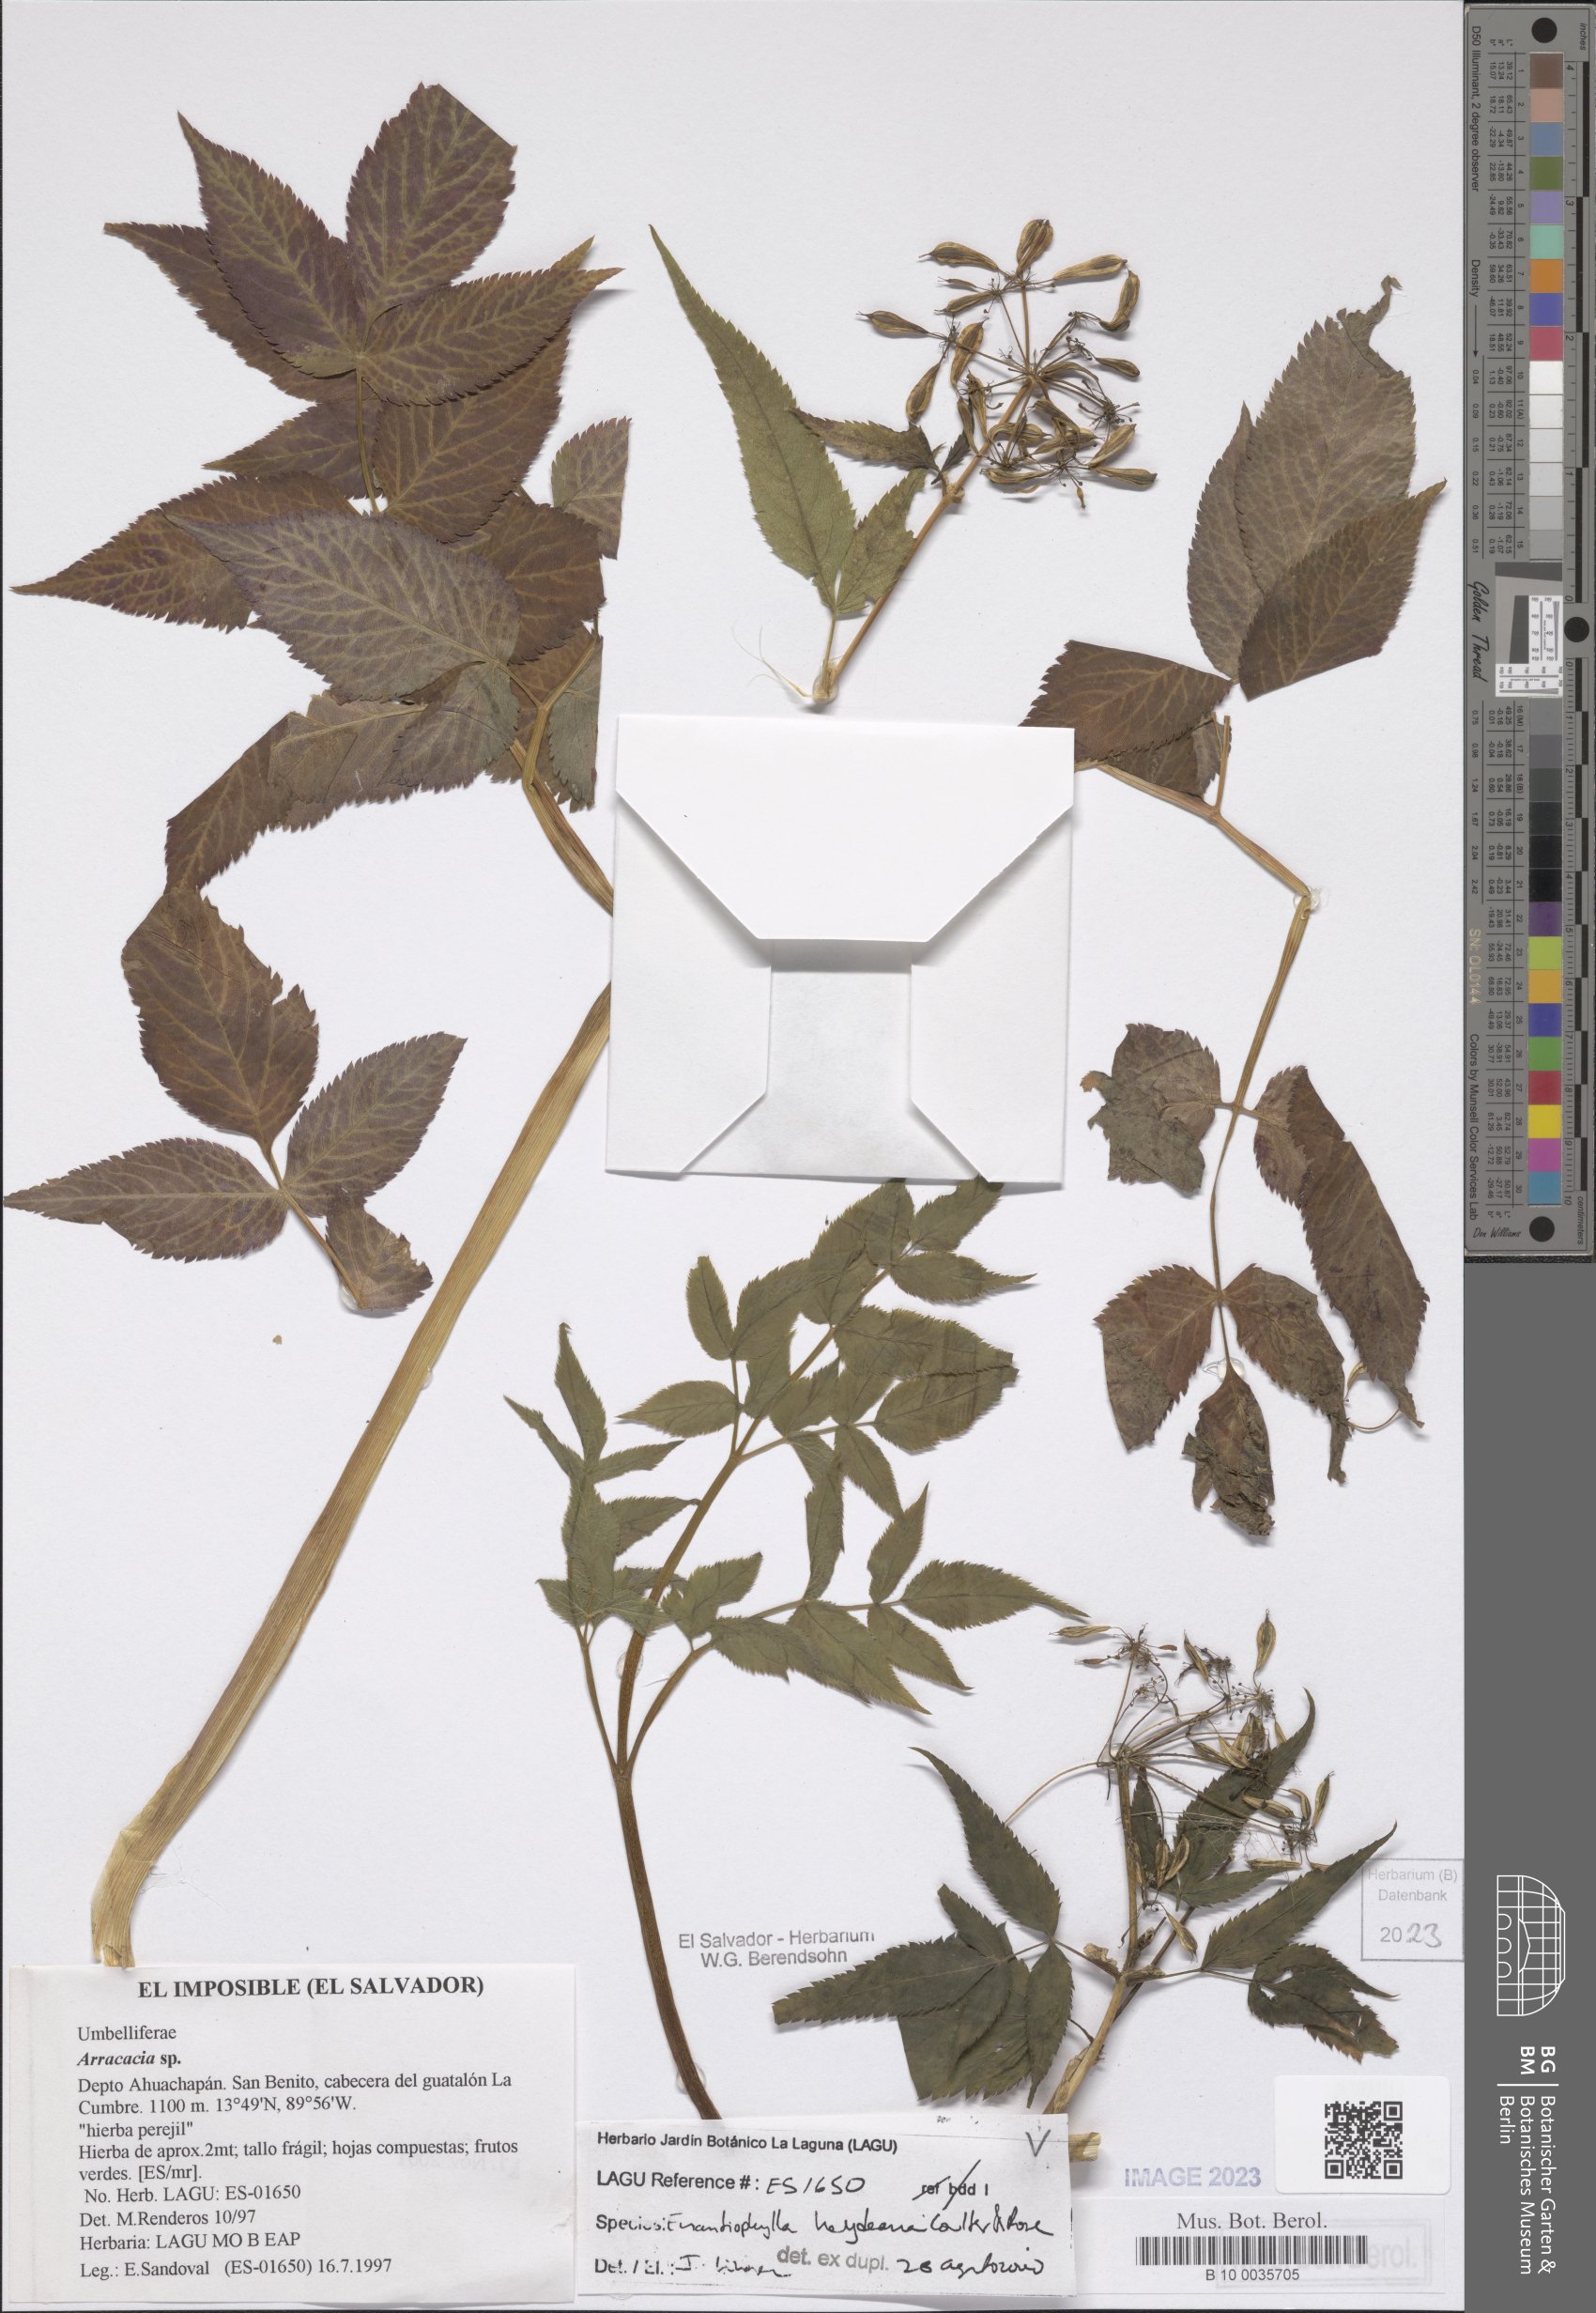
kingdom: Plantae
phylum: Tracheophyta
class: Magnoliopsida
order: Apiales
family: Apiaceae
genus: Enantiophylla
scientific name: Enantiophylla heydeana
